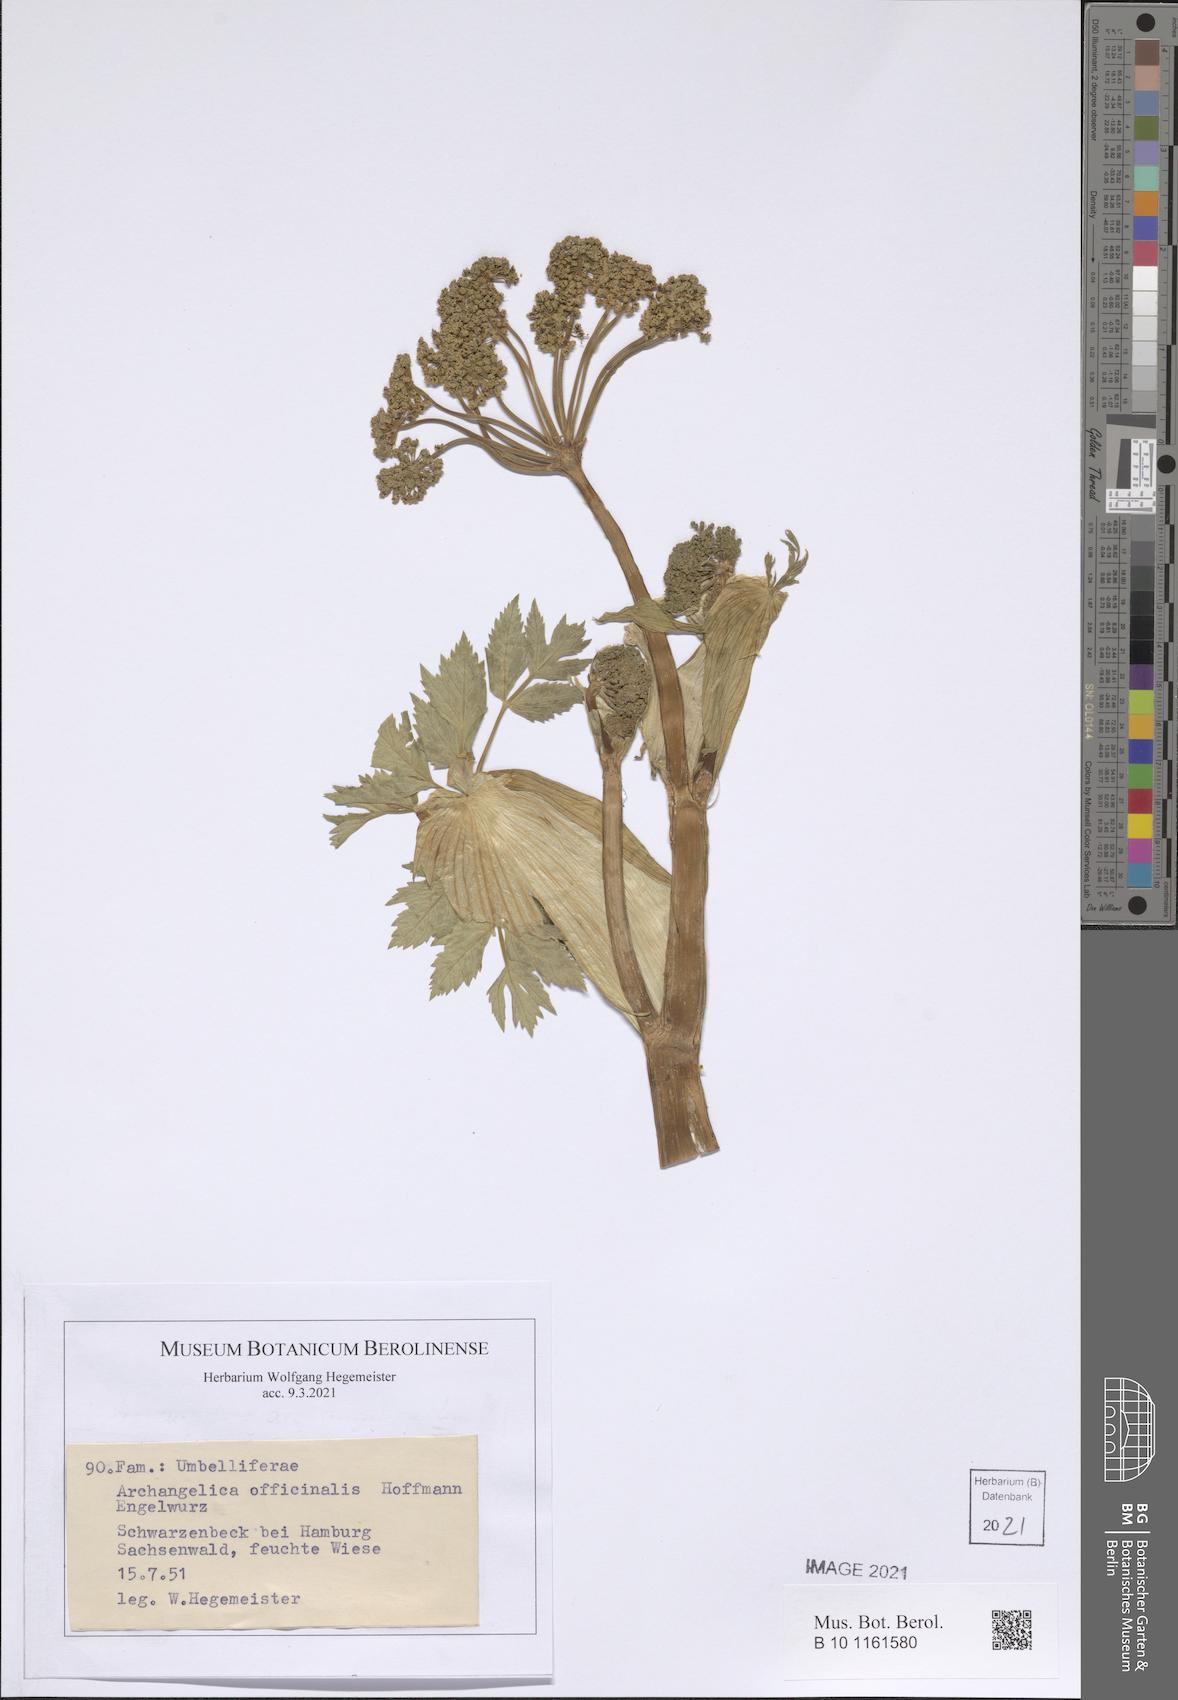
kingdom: Plantae
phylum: Tracheophyta
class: Magnoliopsida
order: Apiales
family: Apiaceae
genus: Angelica
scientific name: Angelica archangelica
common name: Garden angelica
